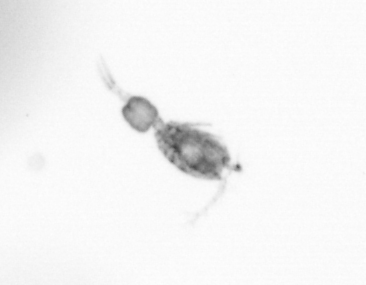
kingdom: Animalia
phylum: Arthropoda
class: Copepoda
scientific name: Copepoda
